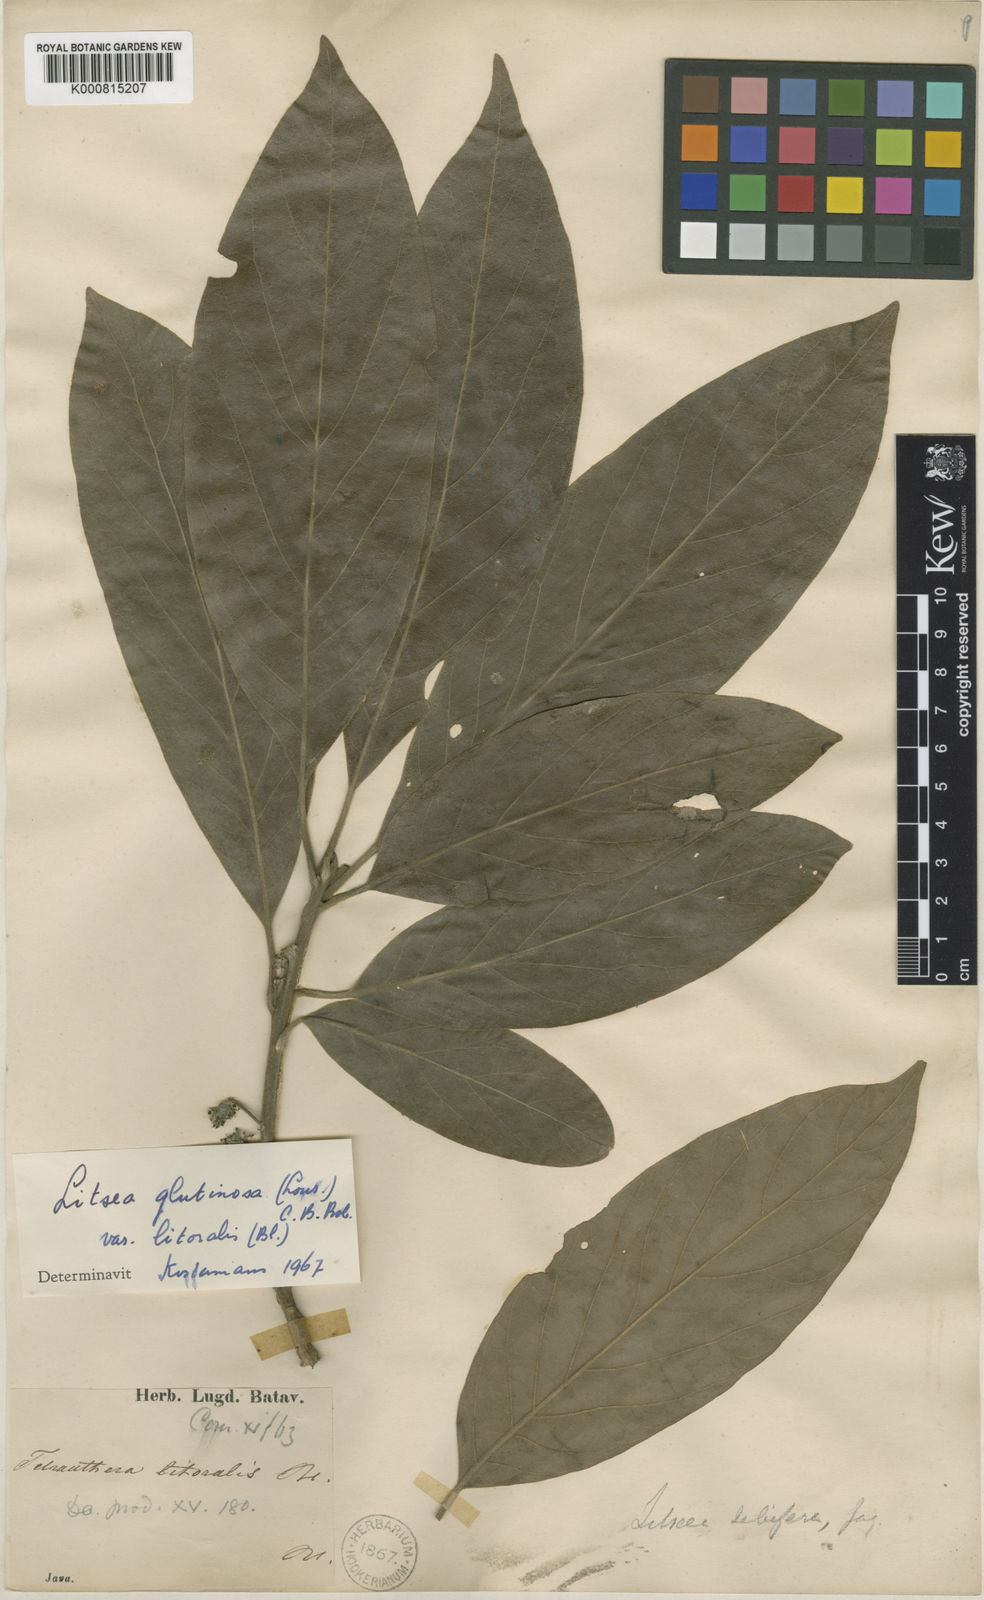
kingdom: Plantae
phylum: Tracheophyta
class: Magnoliopsida
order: Laurales
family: Lauraceae
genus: Litsea
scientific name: Litsea glutinosa
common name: Indian-laurel
